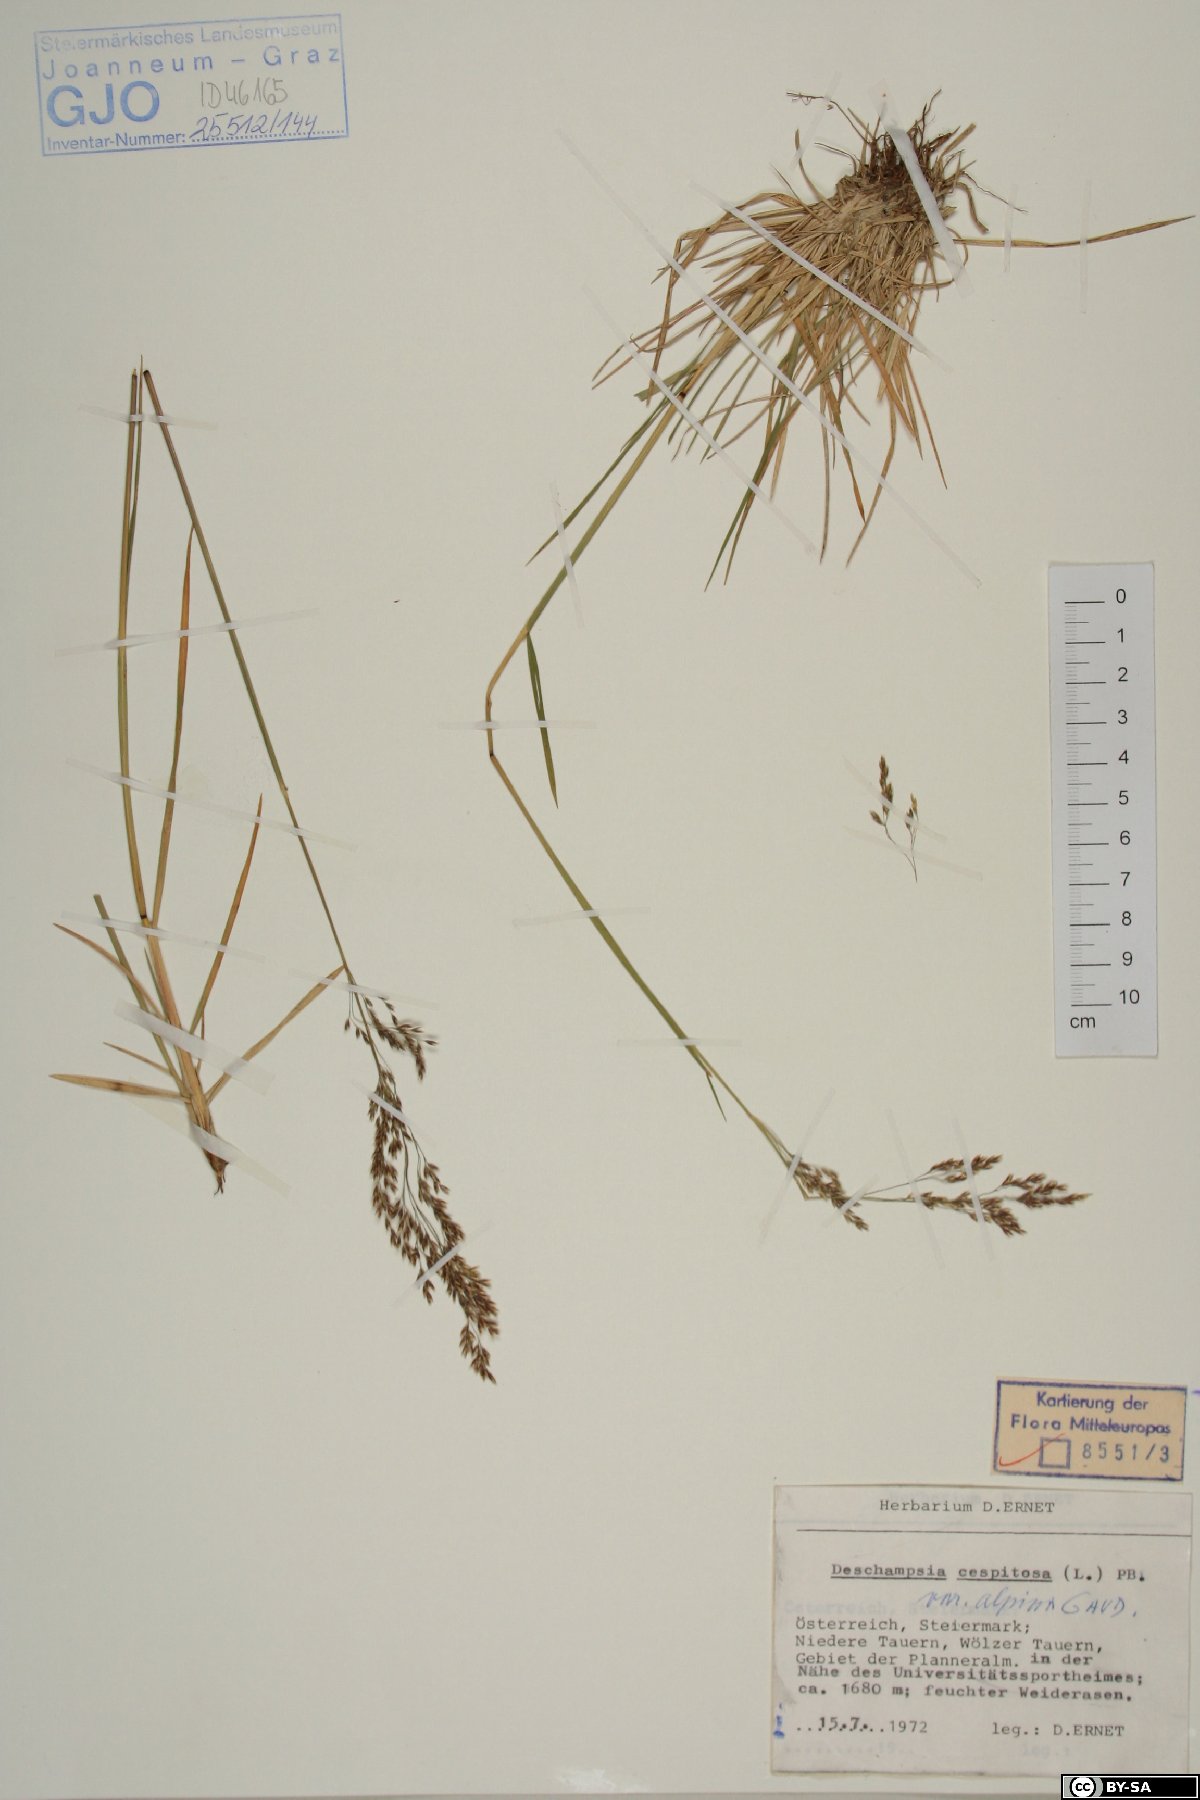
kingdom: Plantae
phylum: Tracheophyta
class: Liliopsida
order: Poales
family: Poaceae
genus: Deschampsia
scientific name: Deschampsia cespitosa
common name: Tufted hair-grass
